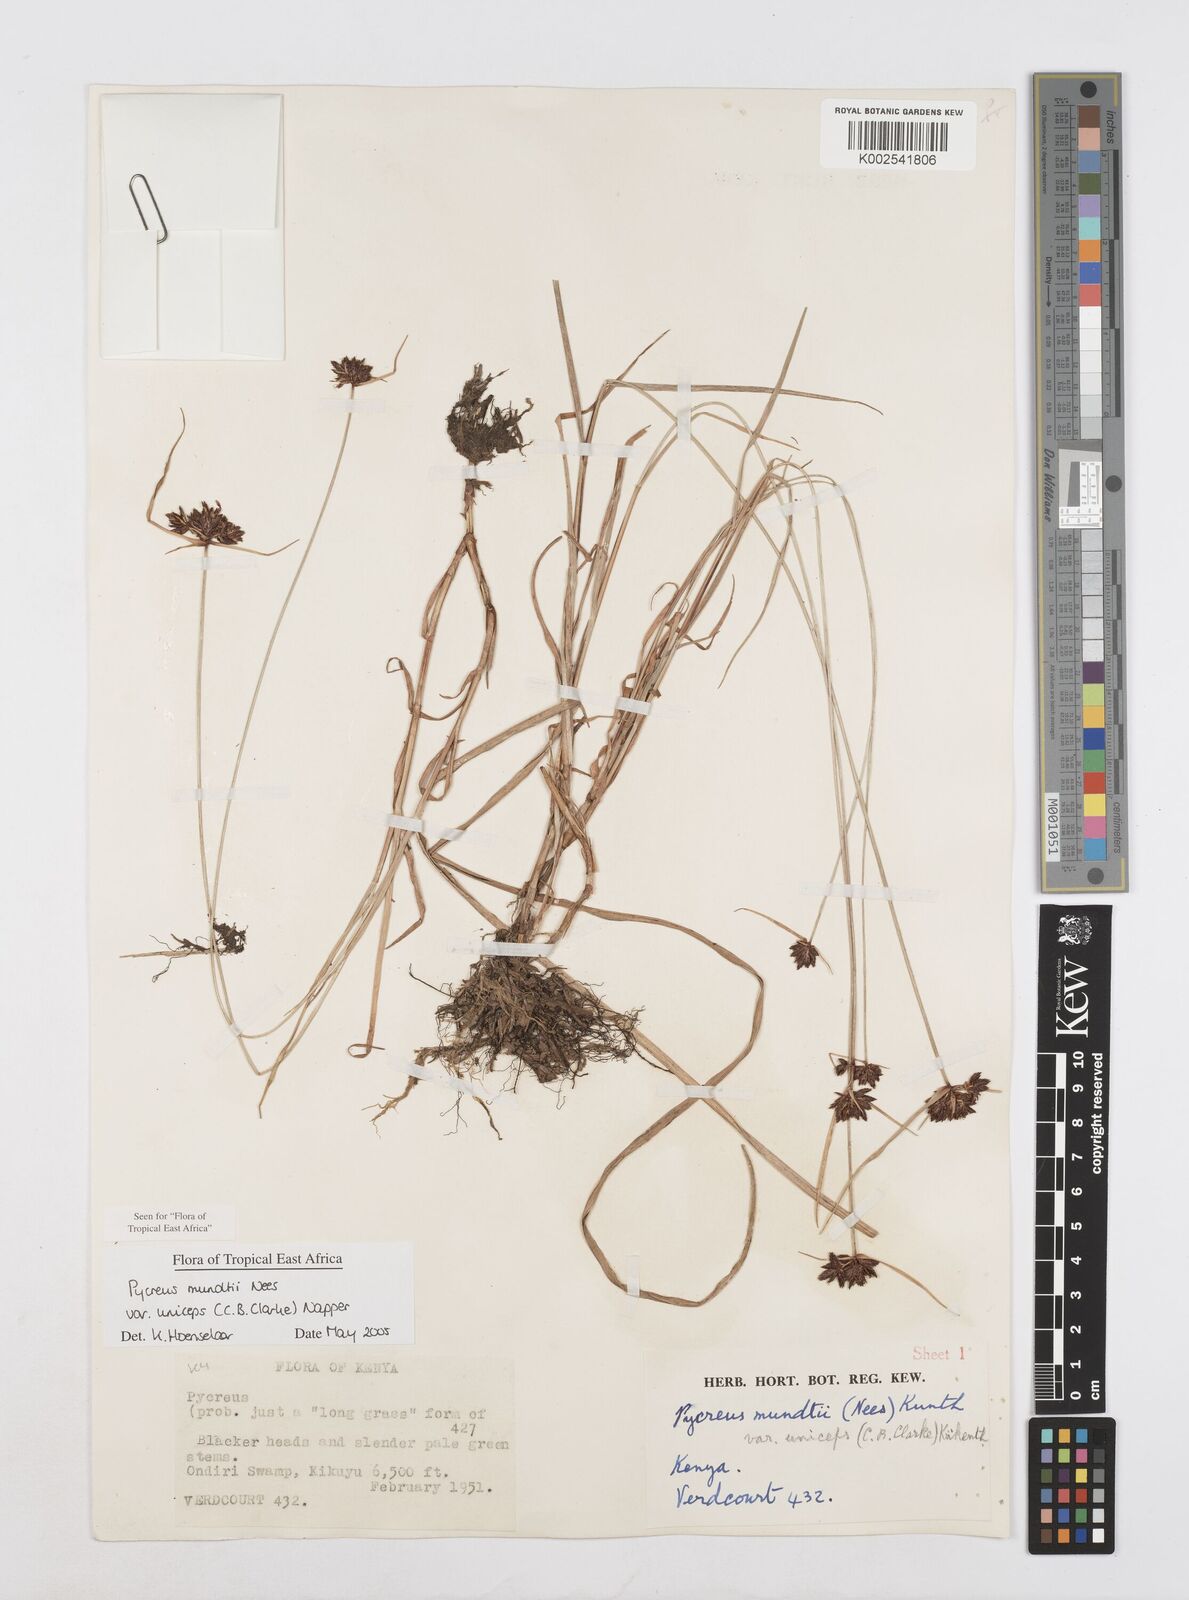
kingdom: Plantae
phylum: Tracheophyta
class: Liliopsida
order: Poales
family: Cyperaceae
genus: Cyperus
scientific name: Cyperus mundii
